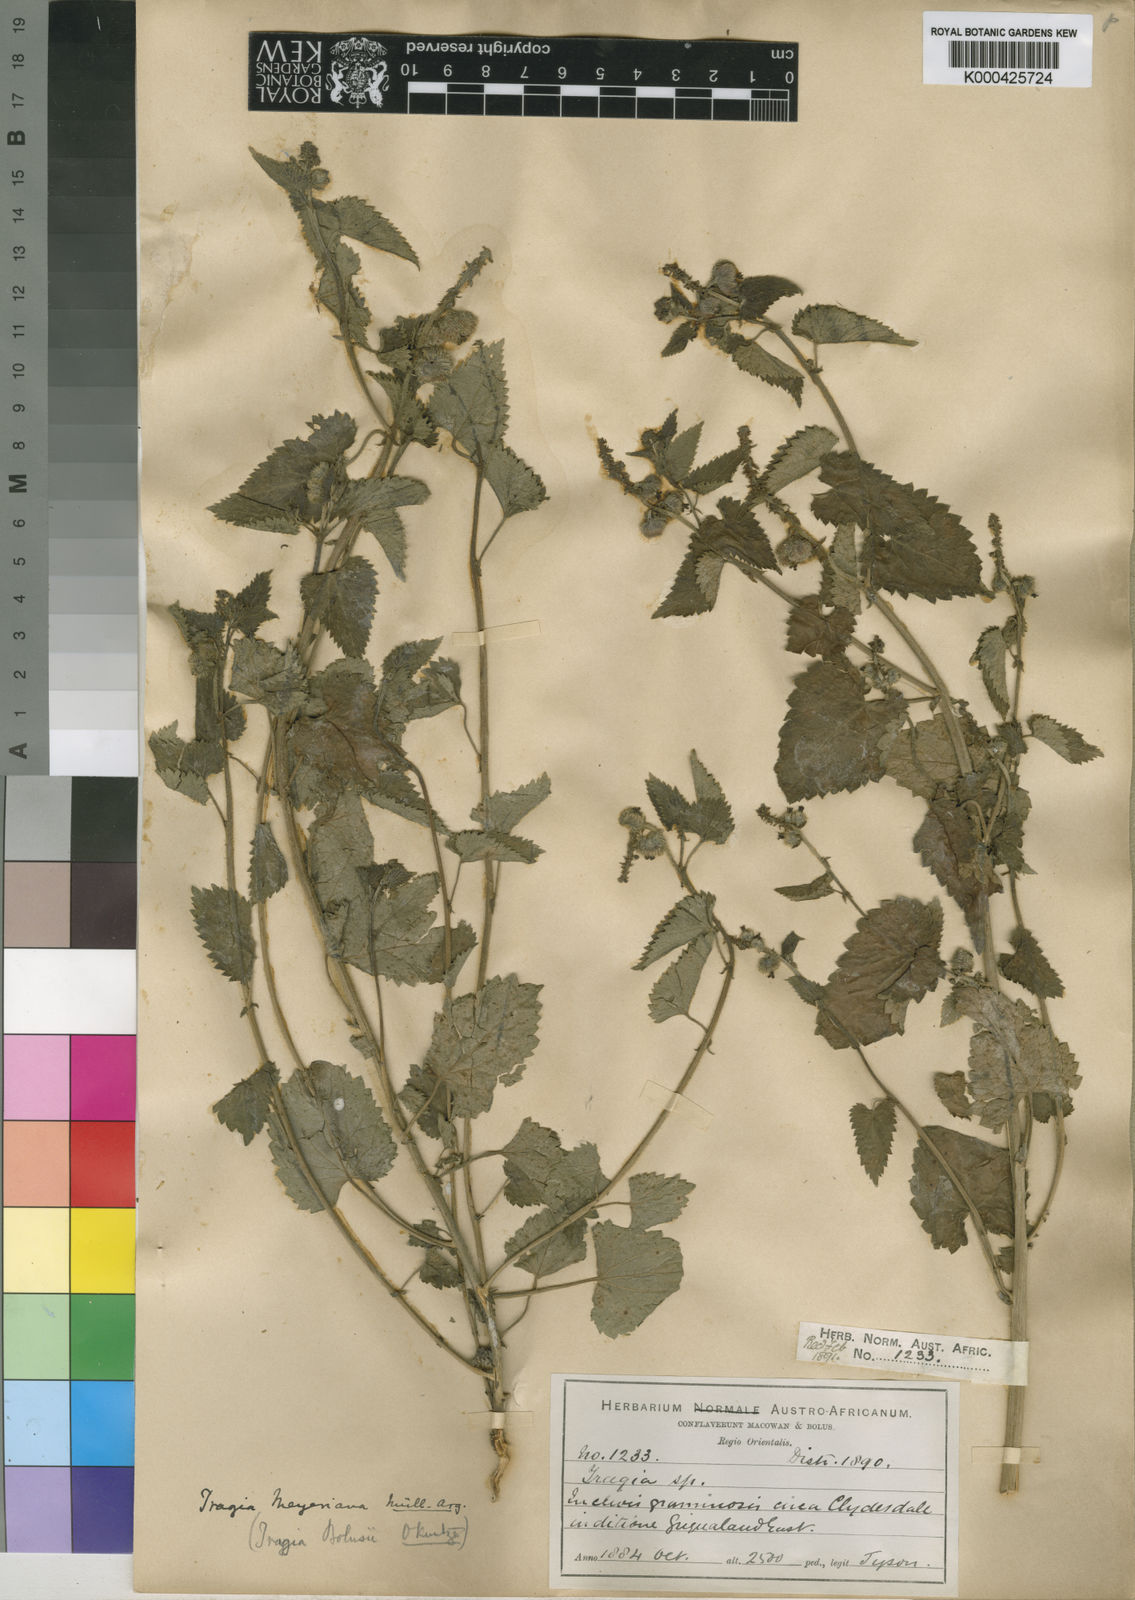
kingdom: Plantae
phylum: Tracheophyta
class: Magnoliopsida
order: Malpighiales
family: Euphorbiaceae
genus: Tragia
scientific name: Tragia
